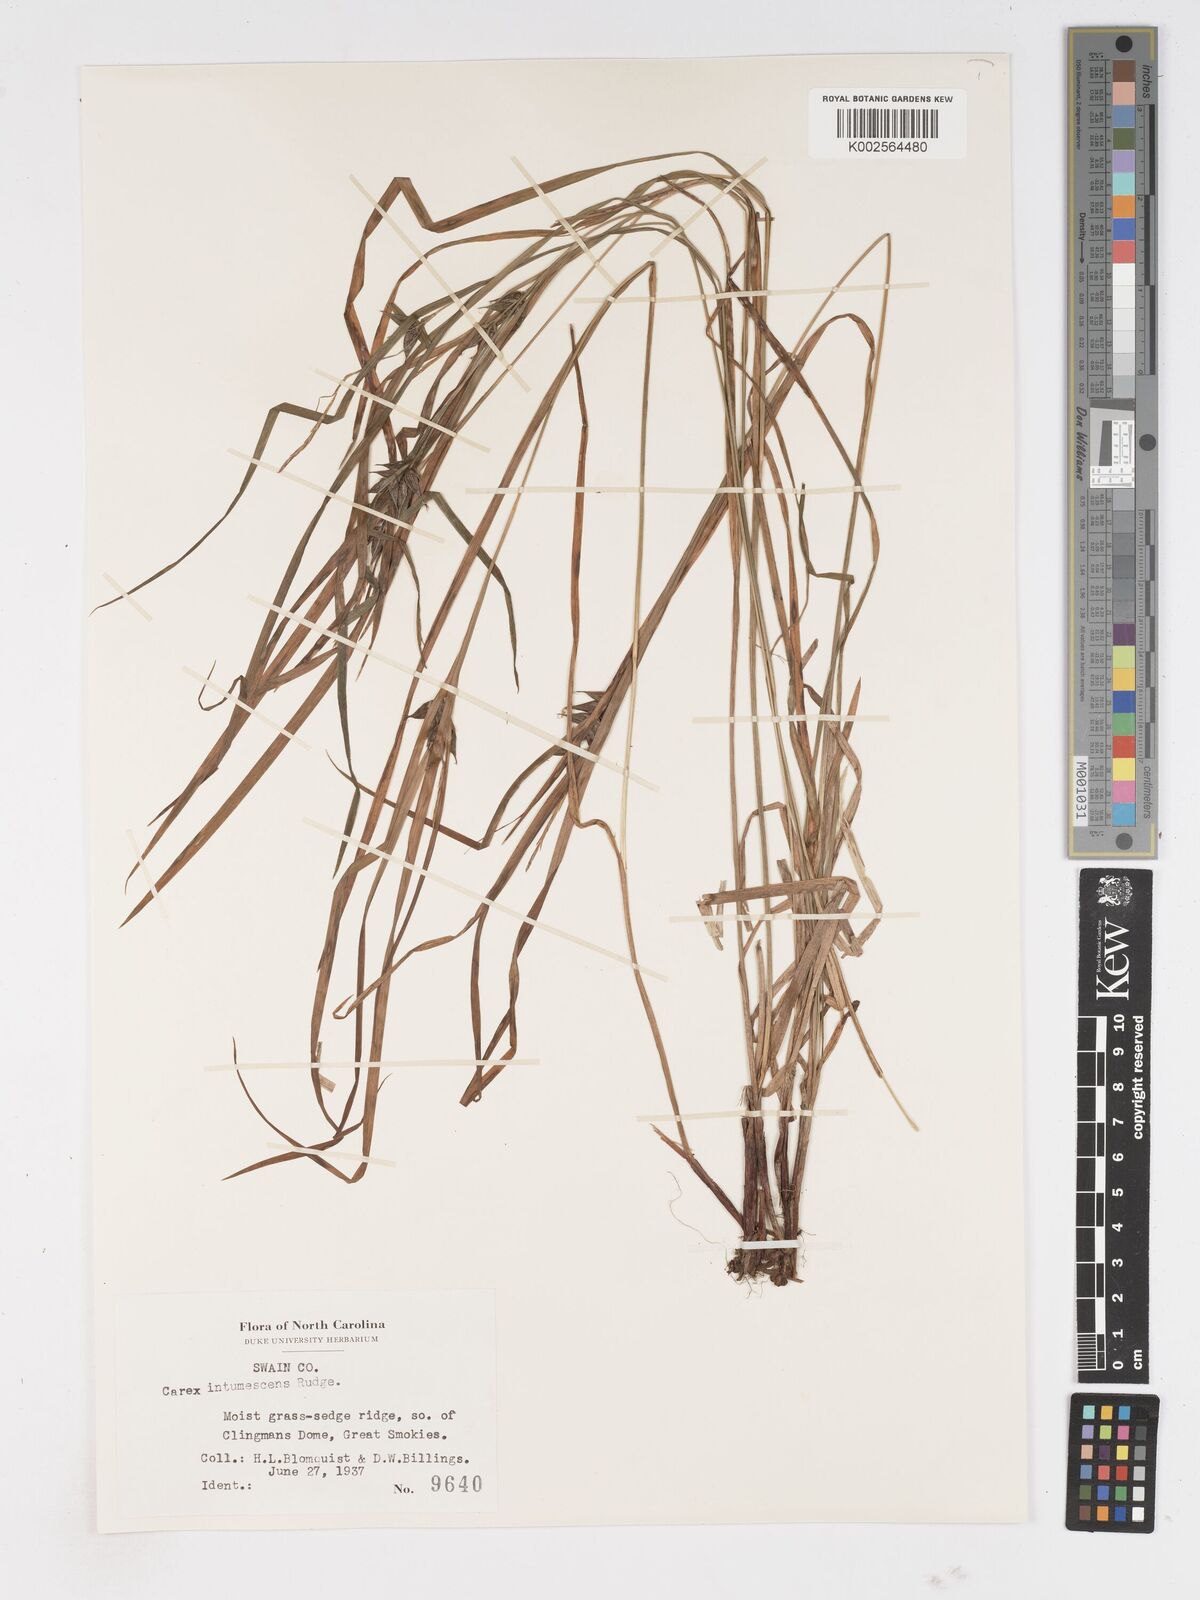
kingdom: Plantae
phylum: Tracheophyta
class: Liliopsida
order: Poales
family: Cyperaceae
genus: Carex
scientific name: Carex intumescens
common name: Greater bladder sedge
